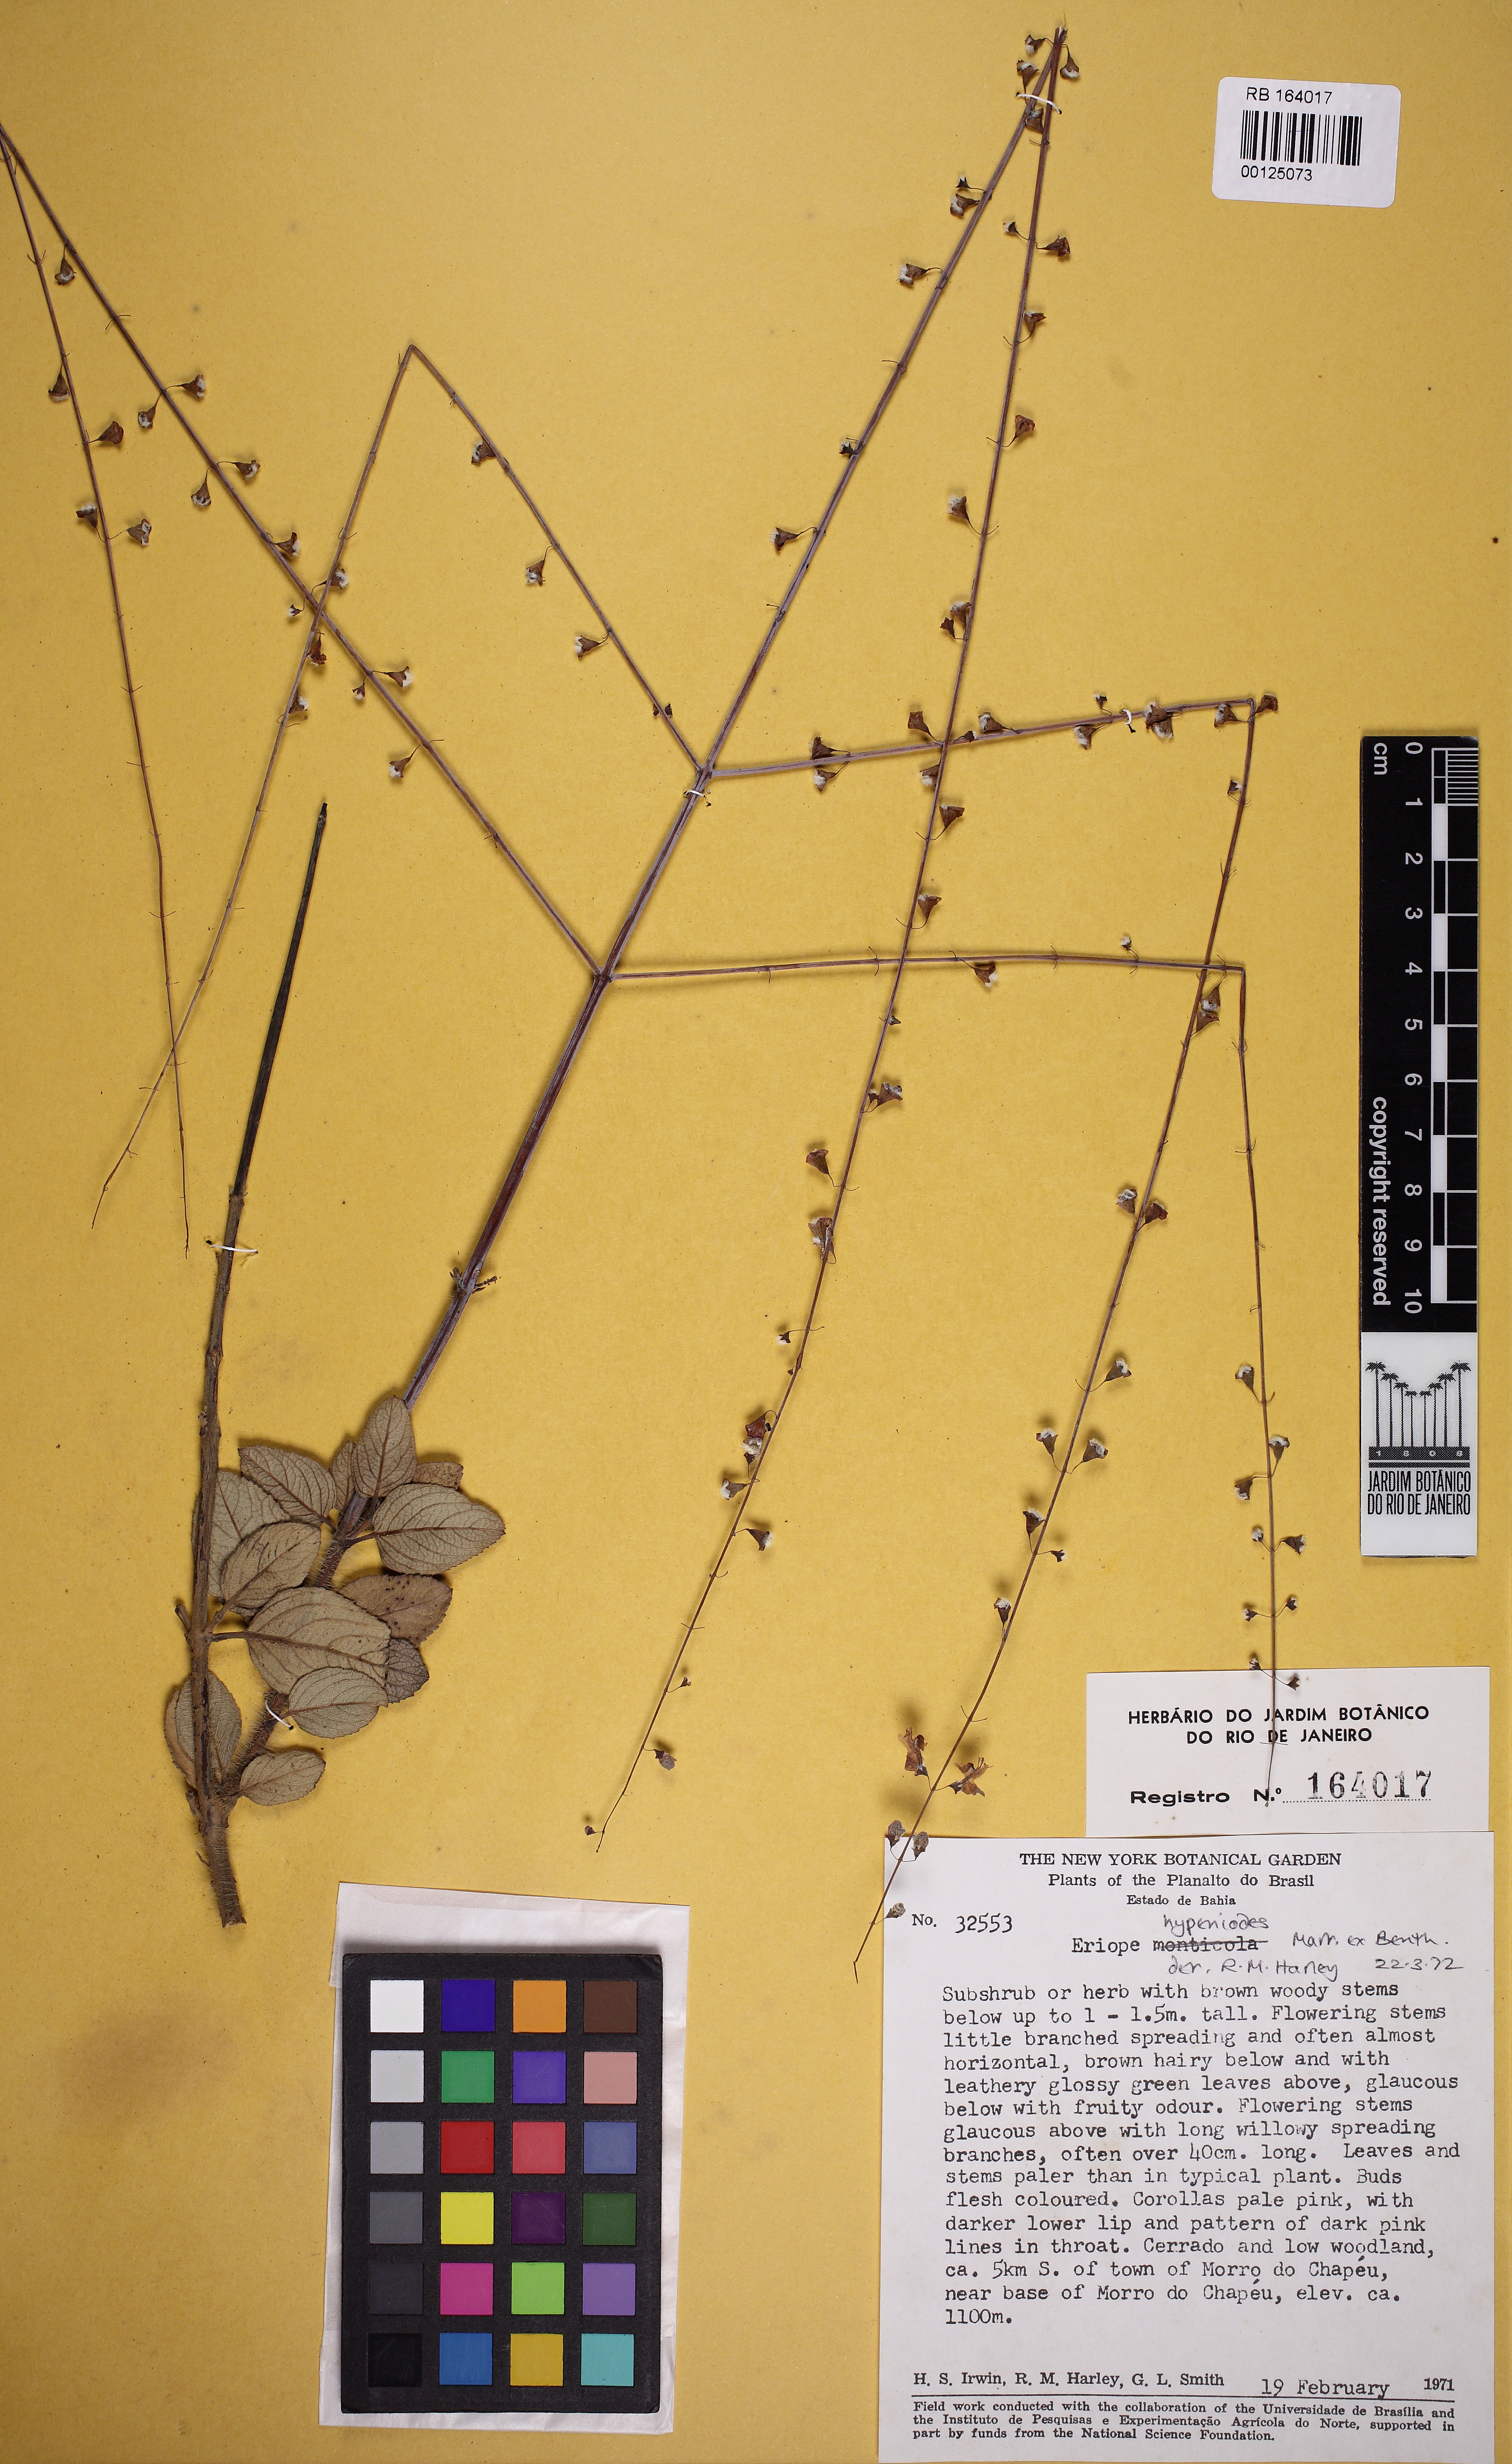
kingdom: Plantae
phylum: Tracheophyta
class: Magnoliopsida
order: Lamiales
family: Lamiaceae
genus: Eriope
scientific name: Eriope hypenioides
